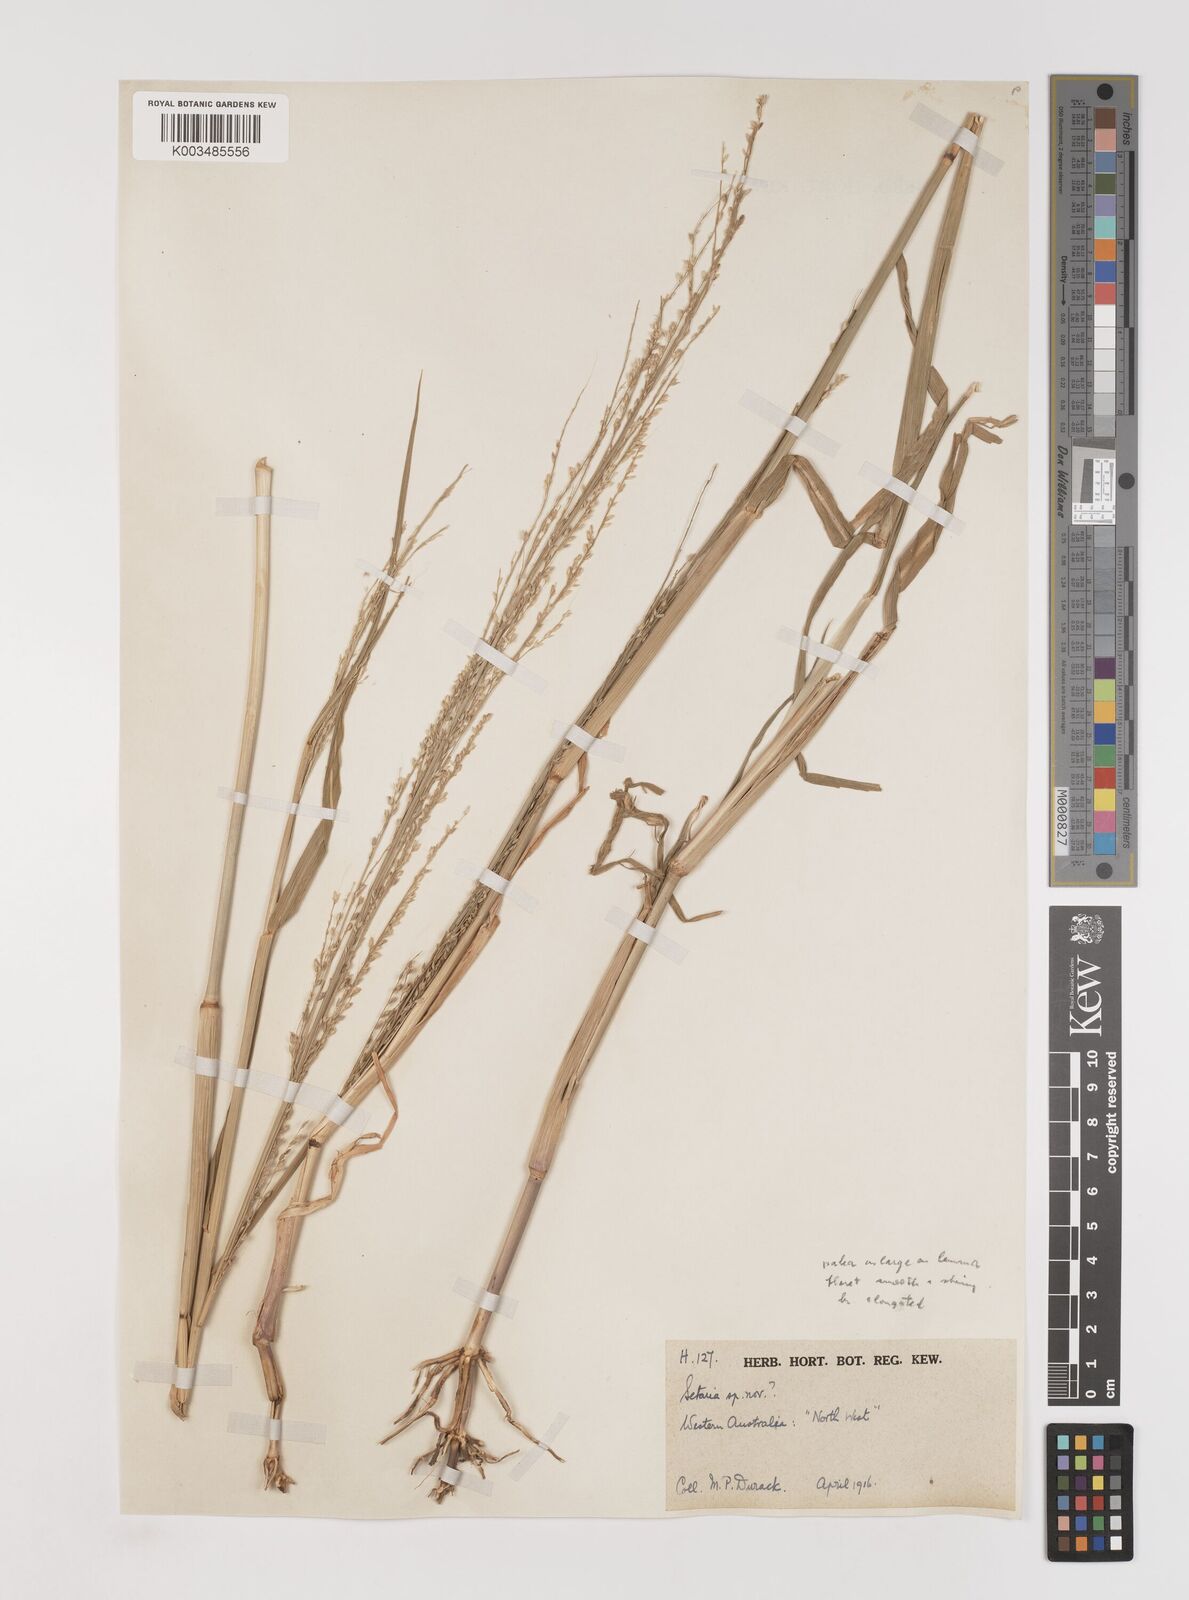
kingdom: Plantae
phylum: Tracheophyta
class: Liliopsida
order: Poales
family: Poaceae
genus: Setaria
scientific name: Setaria
